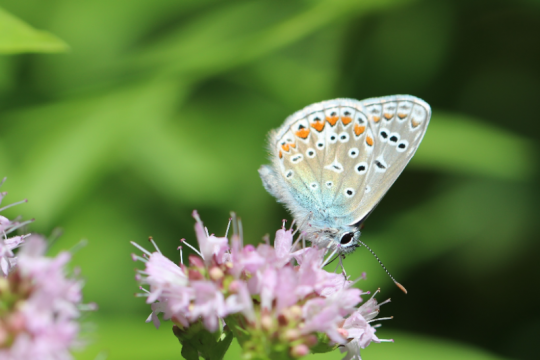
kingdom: Animalia
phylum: Arthropoda
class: Insecta
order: Lepidoptera
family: Lycaenidae
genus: Polyommatus
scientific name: Polyommatus icarus
